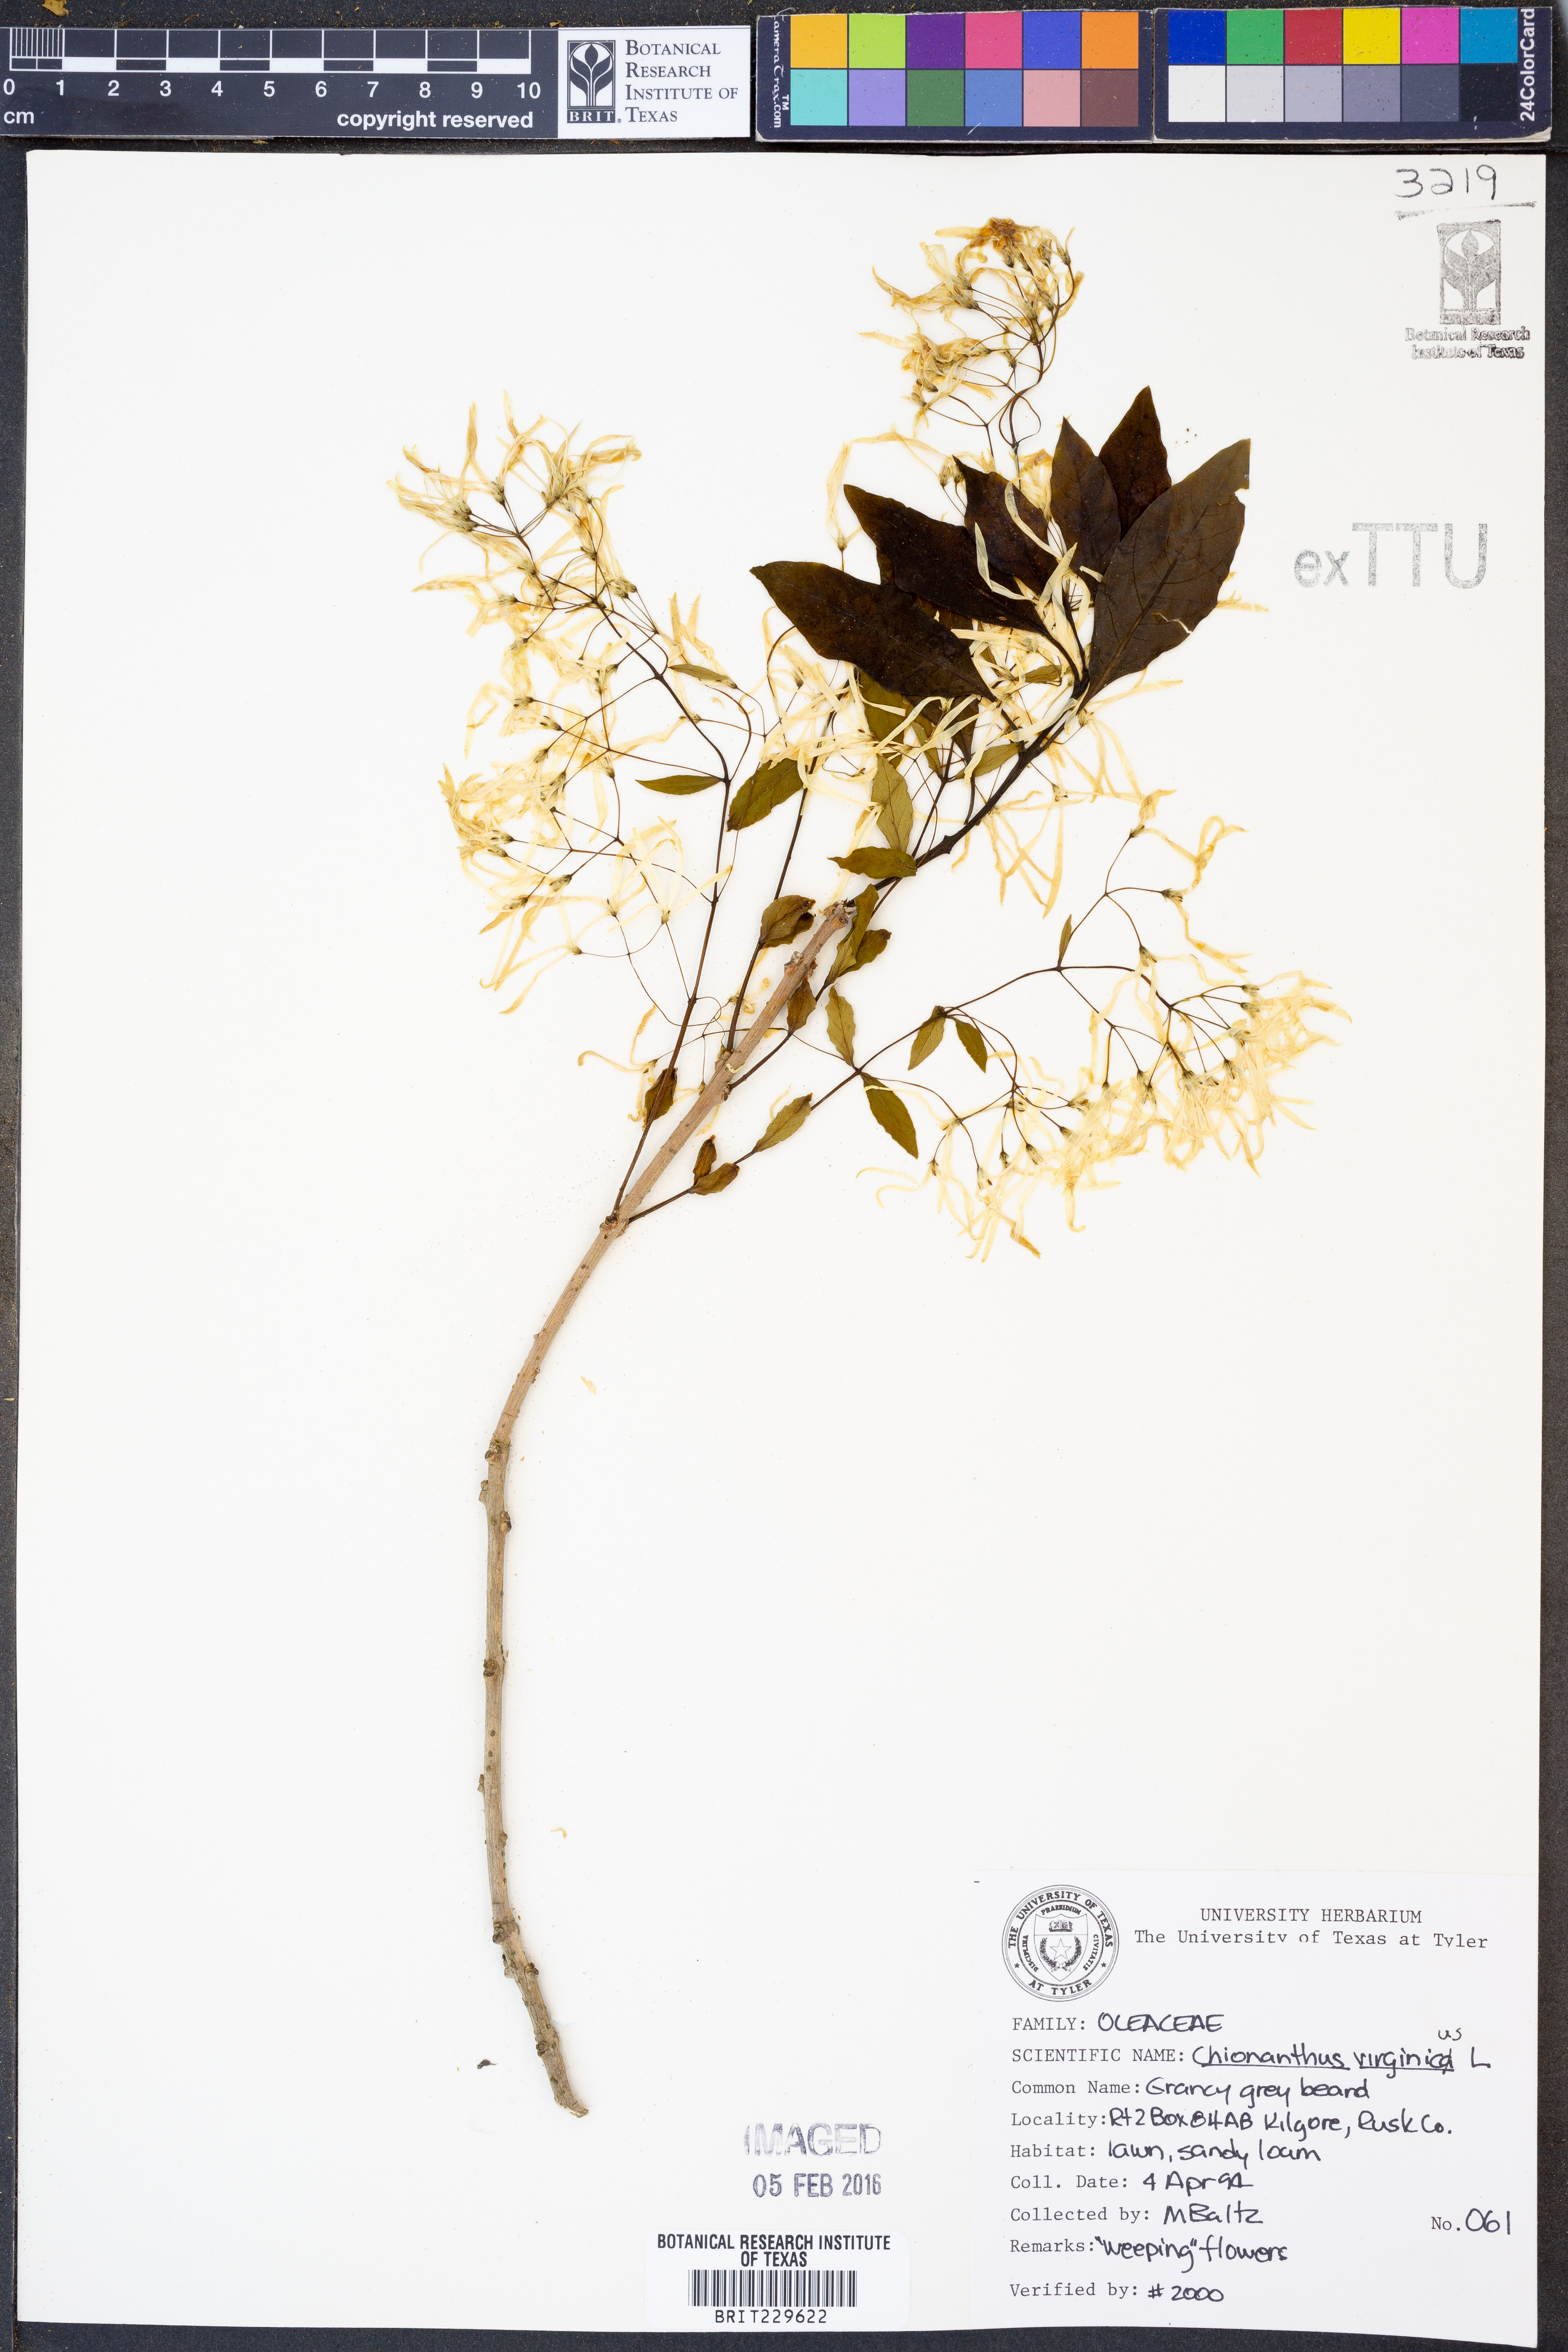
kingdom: Plantae
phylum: Tracheophyta
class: Magnoliopsida
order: Lamiales
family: Oleaceae
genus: Chionanthus
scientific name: Chionanthus virginicus
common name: American fringetree
